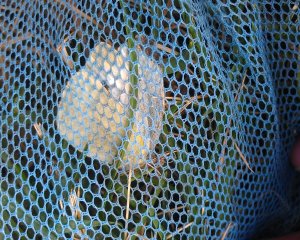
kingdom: Animalia
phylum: Arthropoda
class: Insecta
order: Lepidoptera
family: Pieridae
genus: Pieris
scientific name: Pieris rapae
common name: Cabbage White
